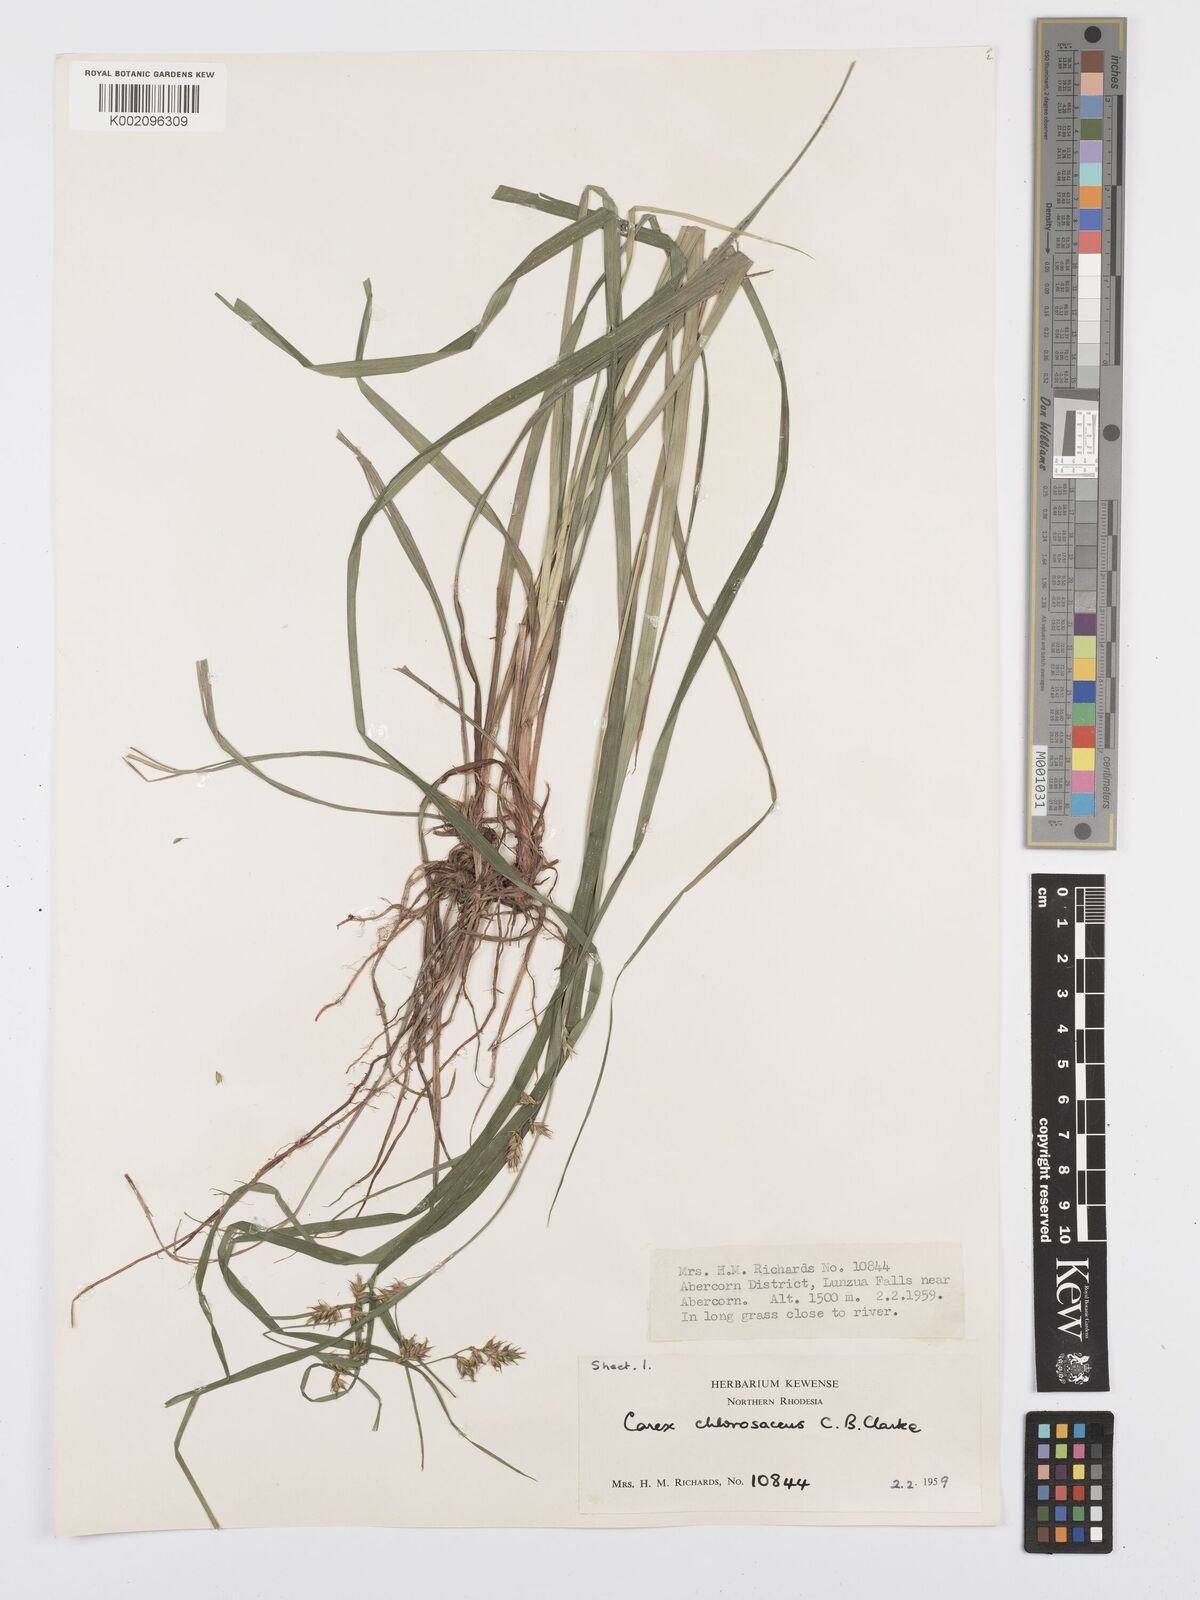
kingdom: Plantae
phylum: Tracheophyta
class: Liliopsida
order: Poales
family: Cyperaceae
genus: Carex
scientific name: Carex chlorosaccus
